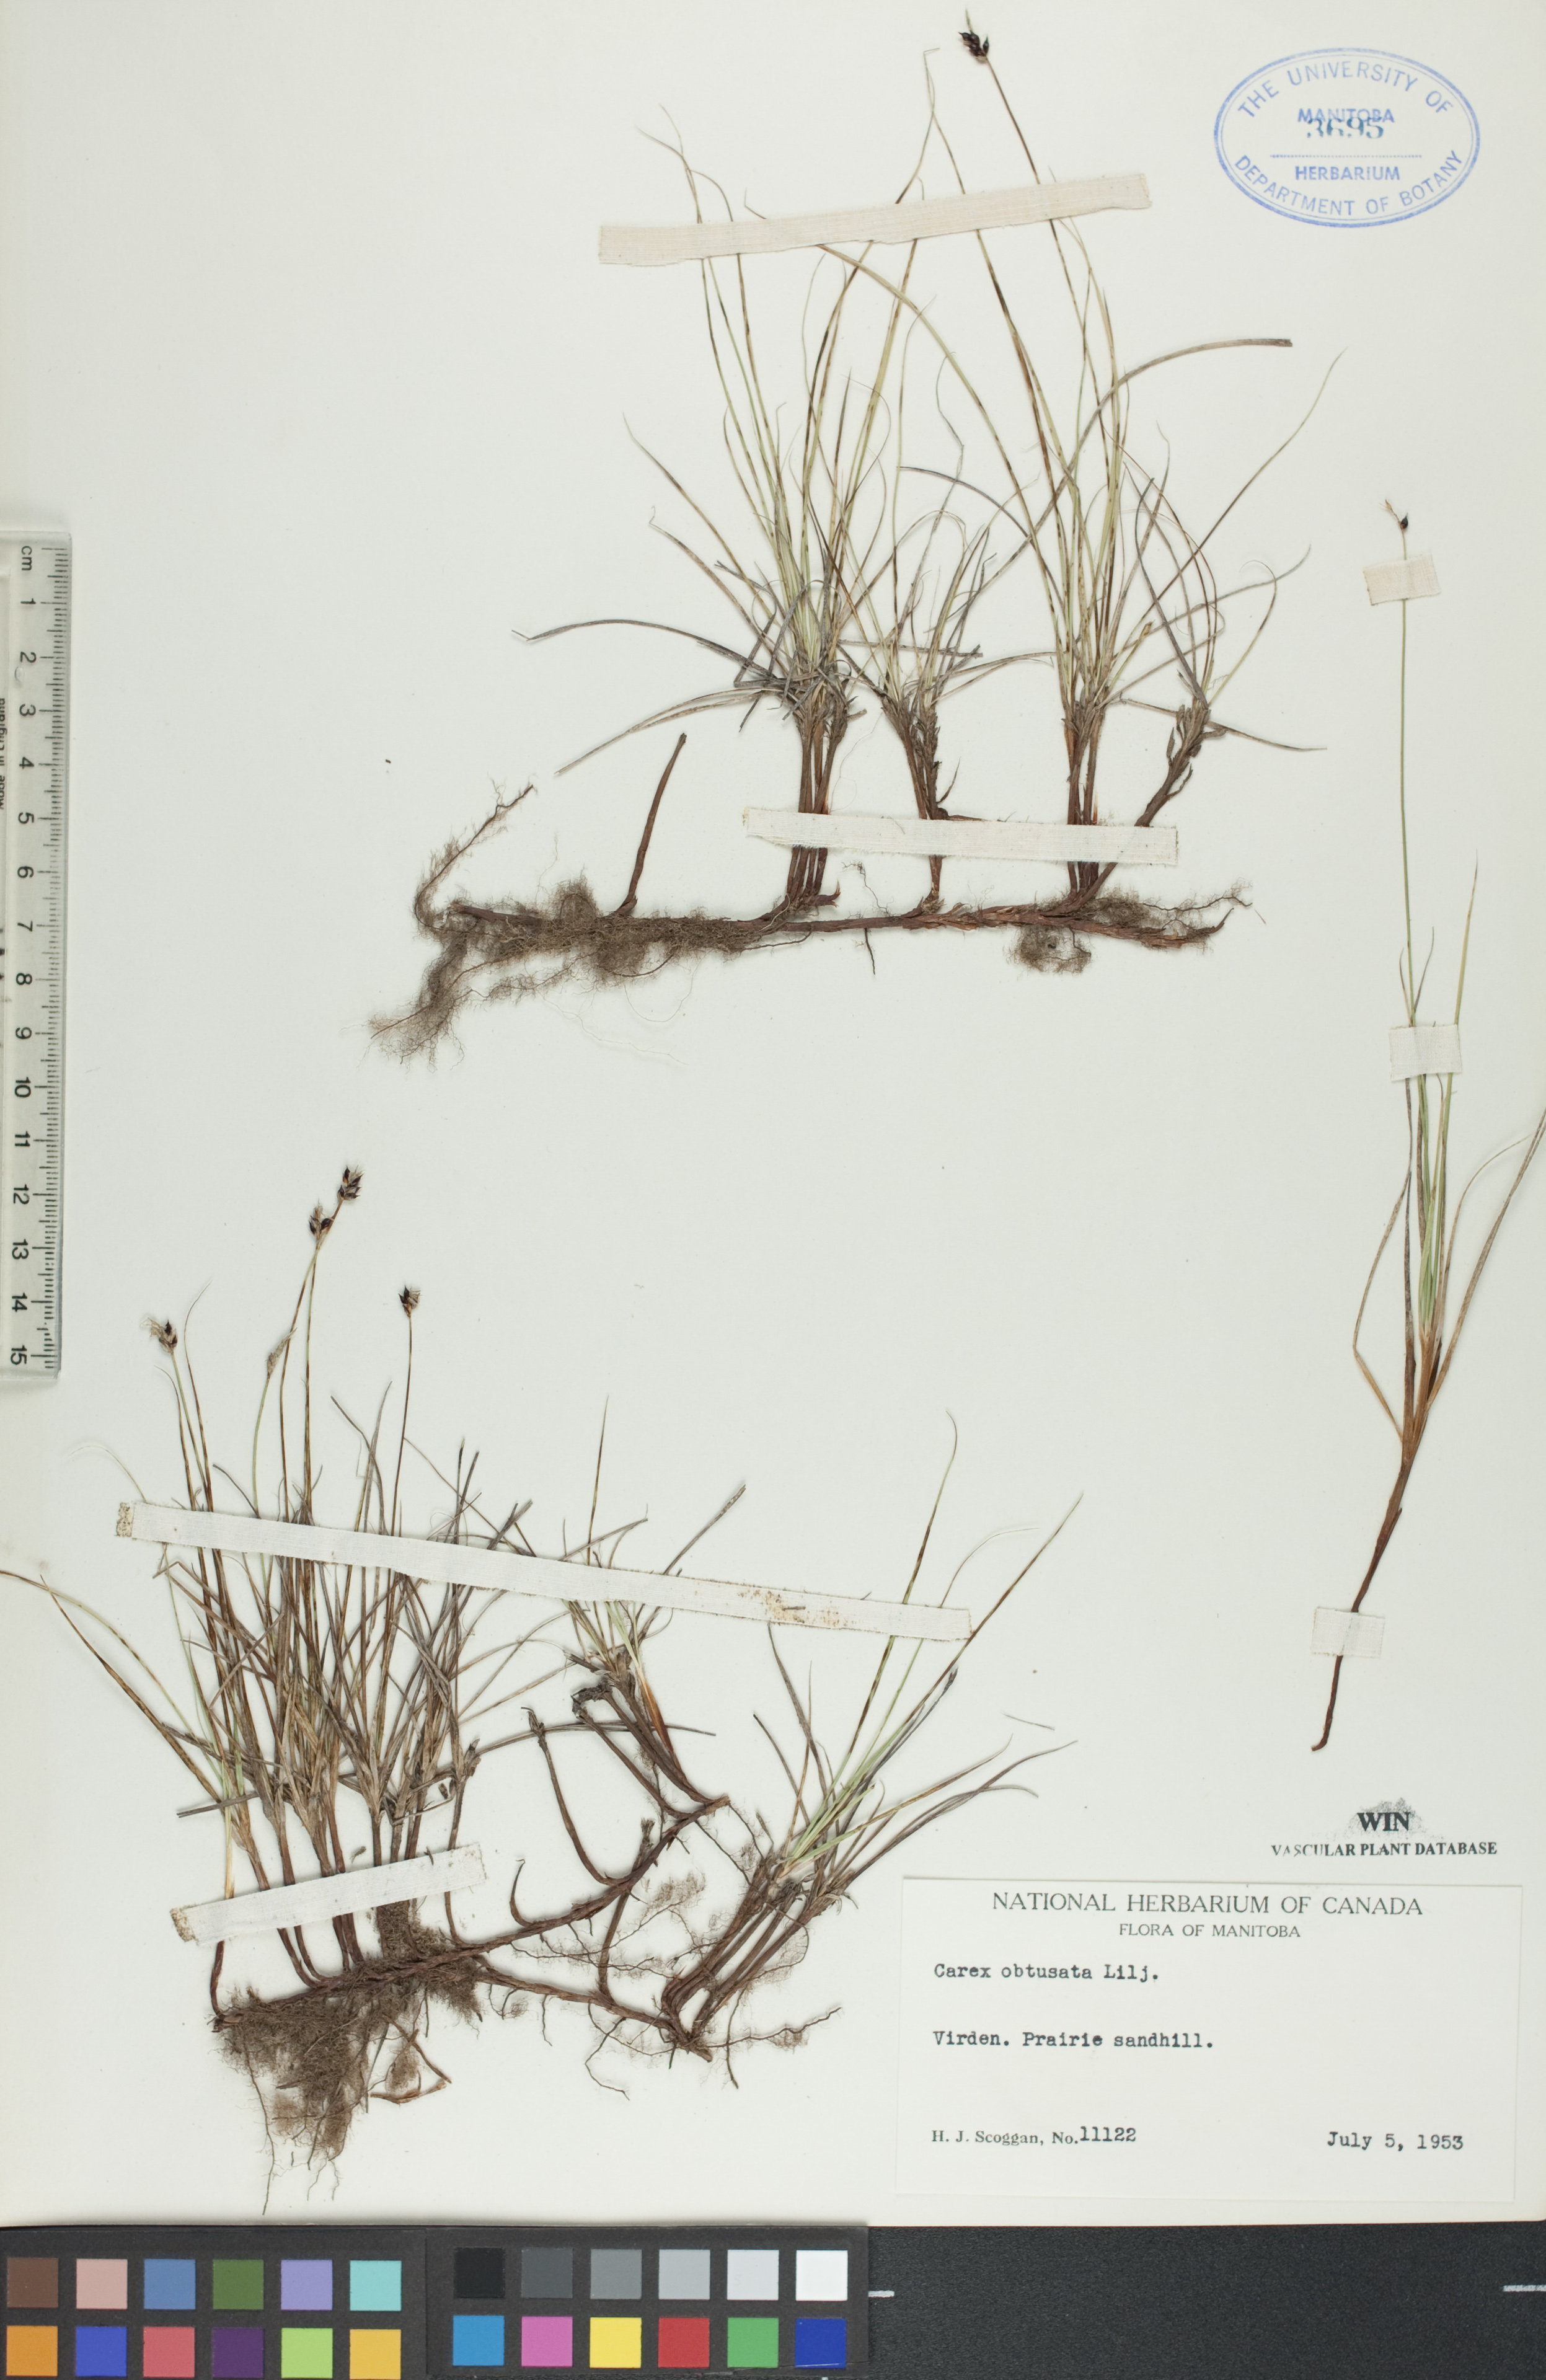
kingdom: Plantae
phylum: Tracheophyta
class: Liliopsida
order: Poales
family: Cyperaceae
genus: Carex
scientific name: Carex obtusata
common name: Blunt sedge
